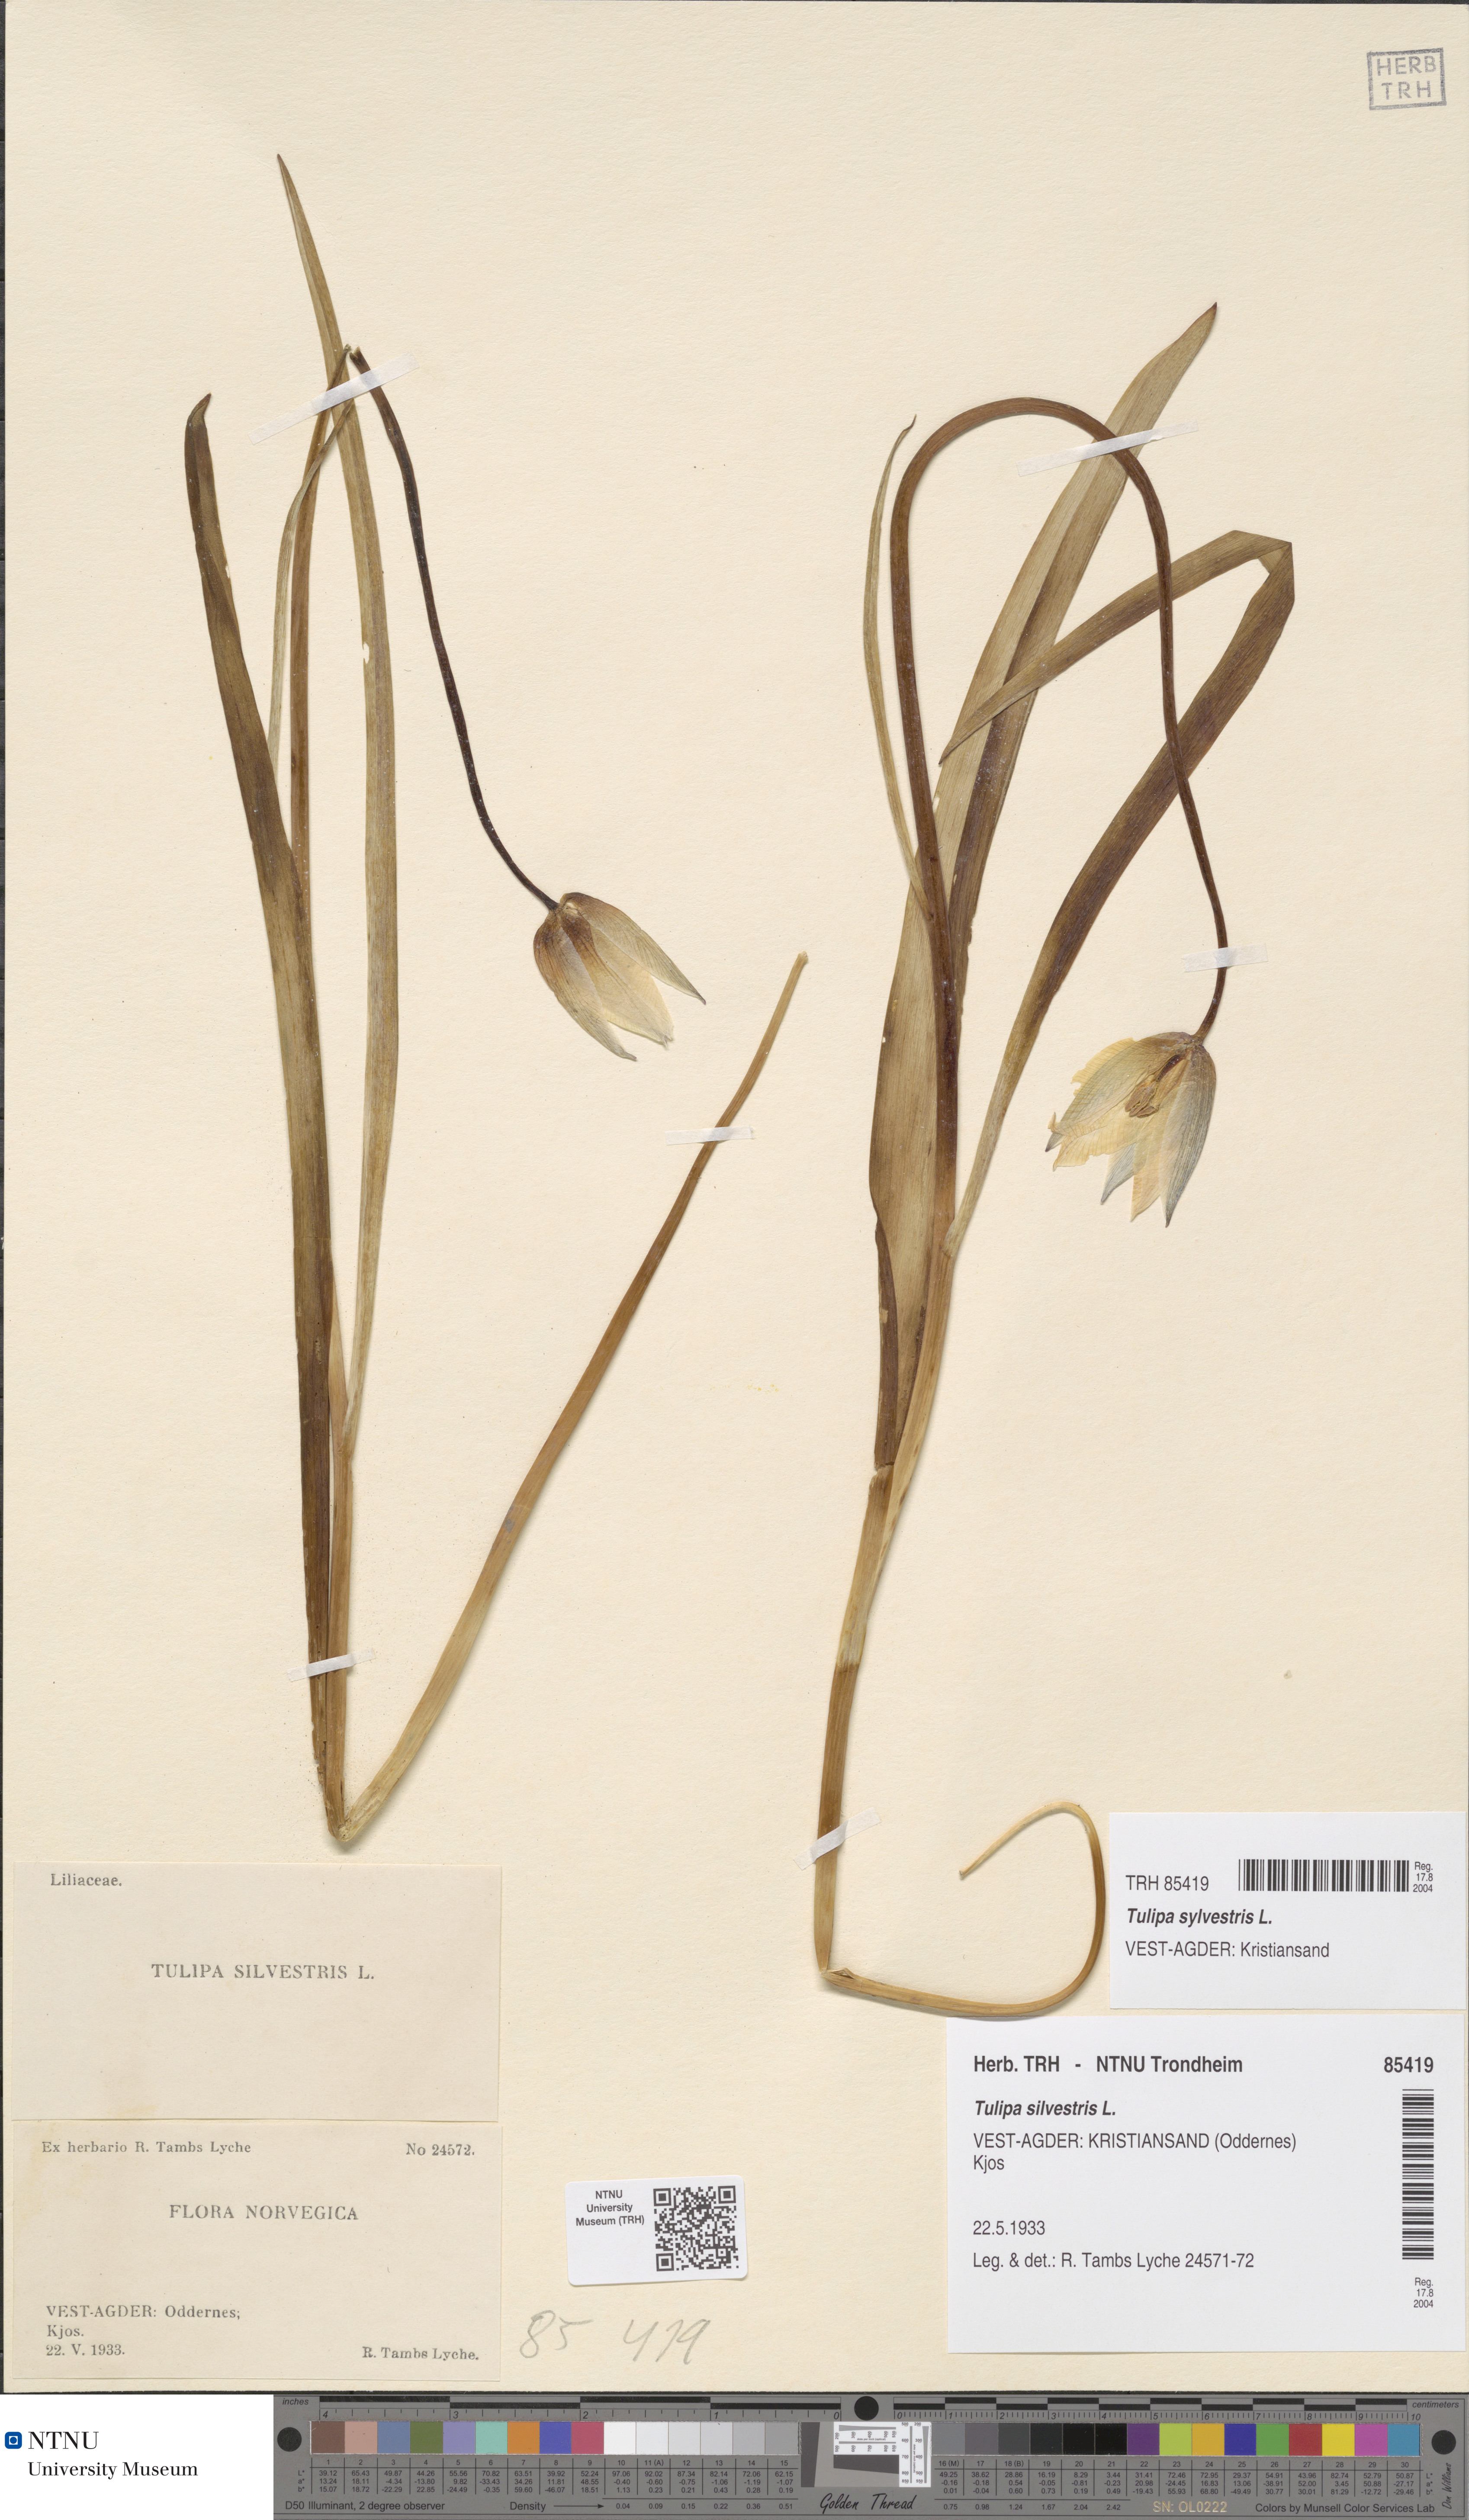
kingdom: Plantae
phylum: Tracheophyta
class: Liliopsida
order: Liliales
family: Liliaceae
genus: Tulipa
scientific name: Tulipa sylvestris
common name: Wild tulip
